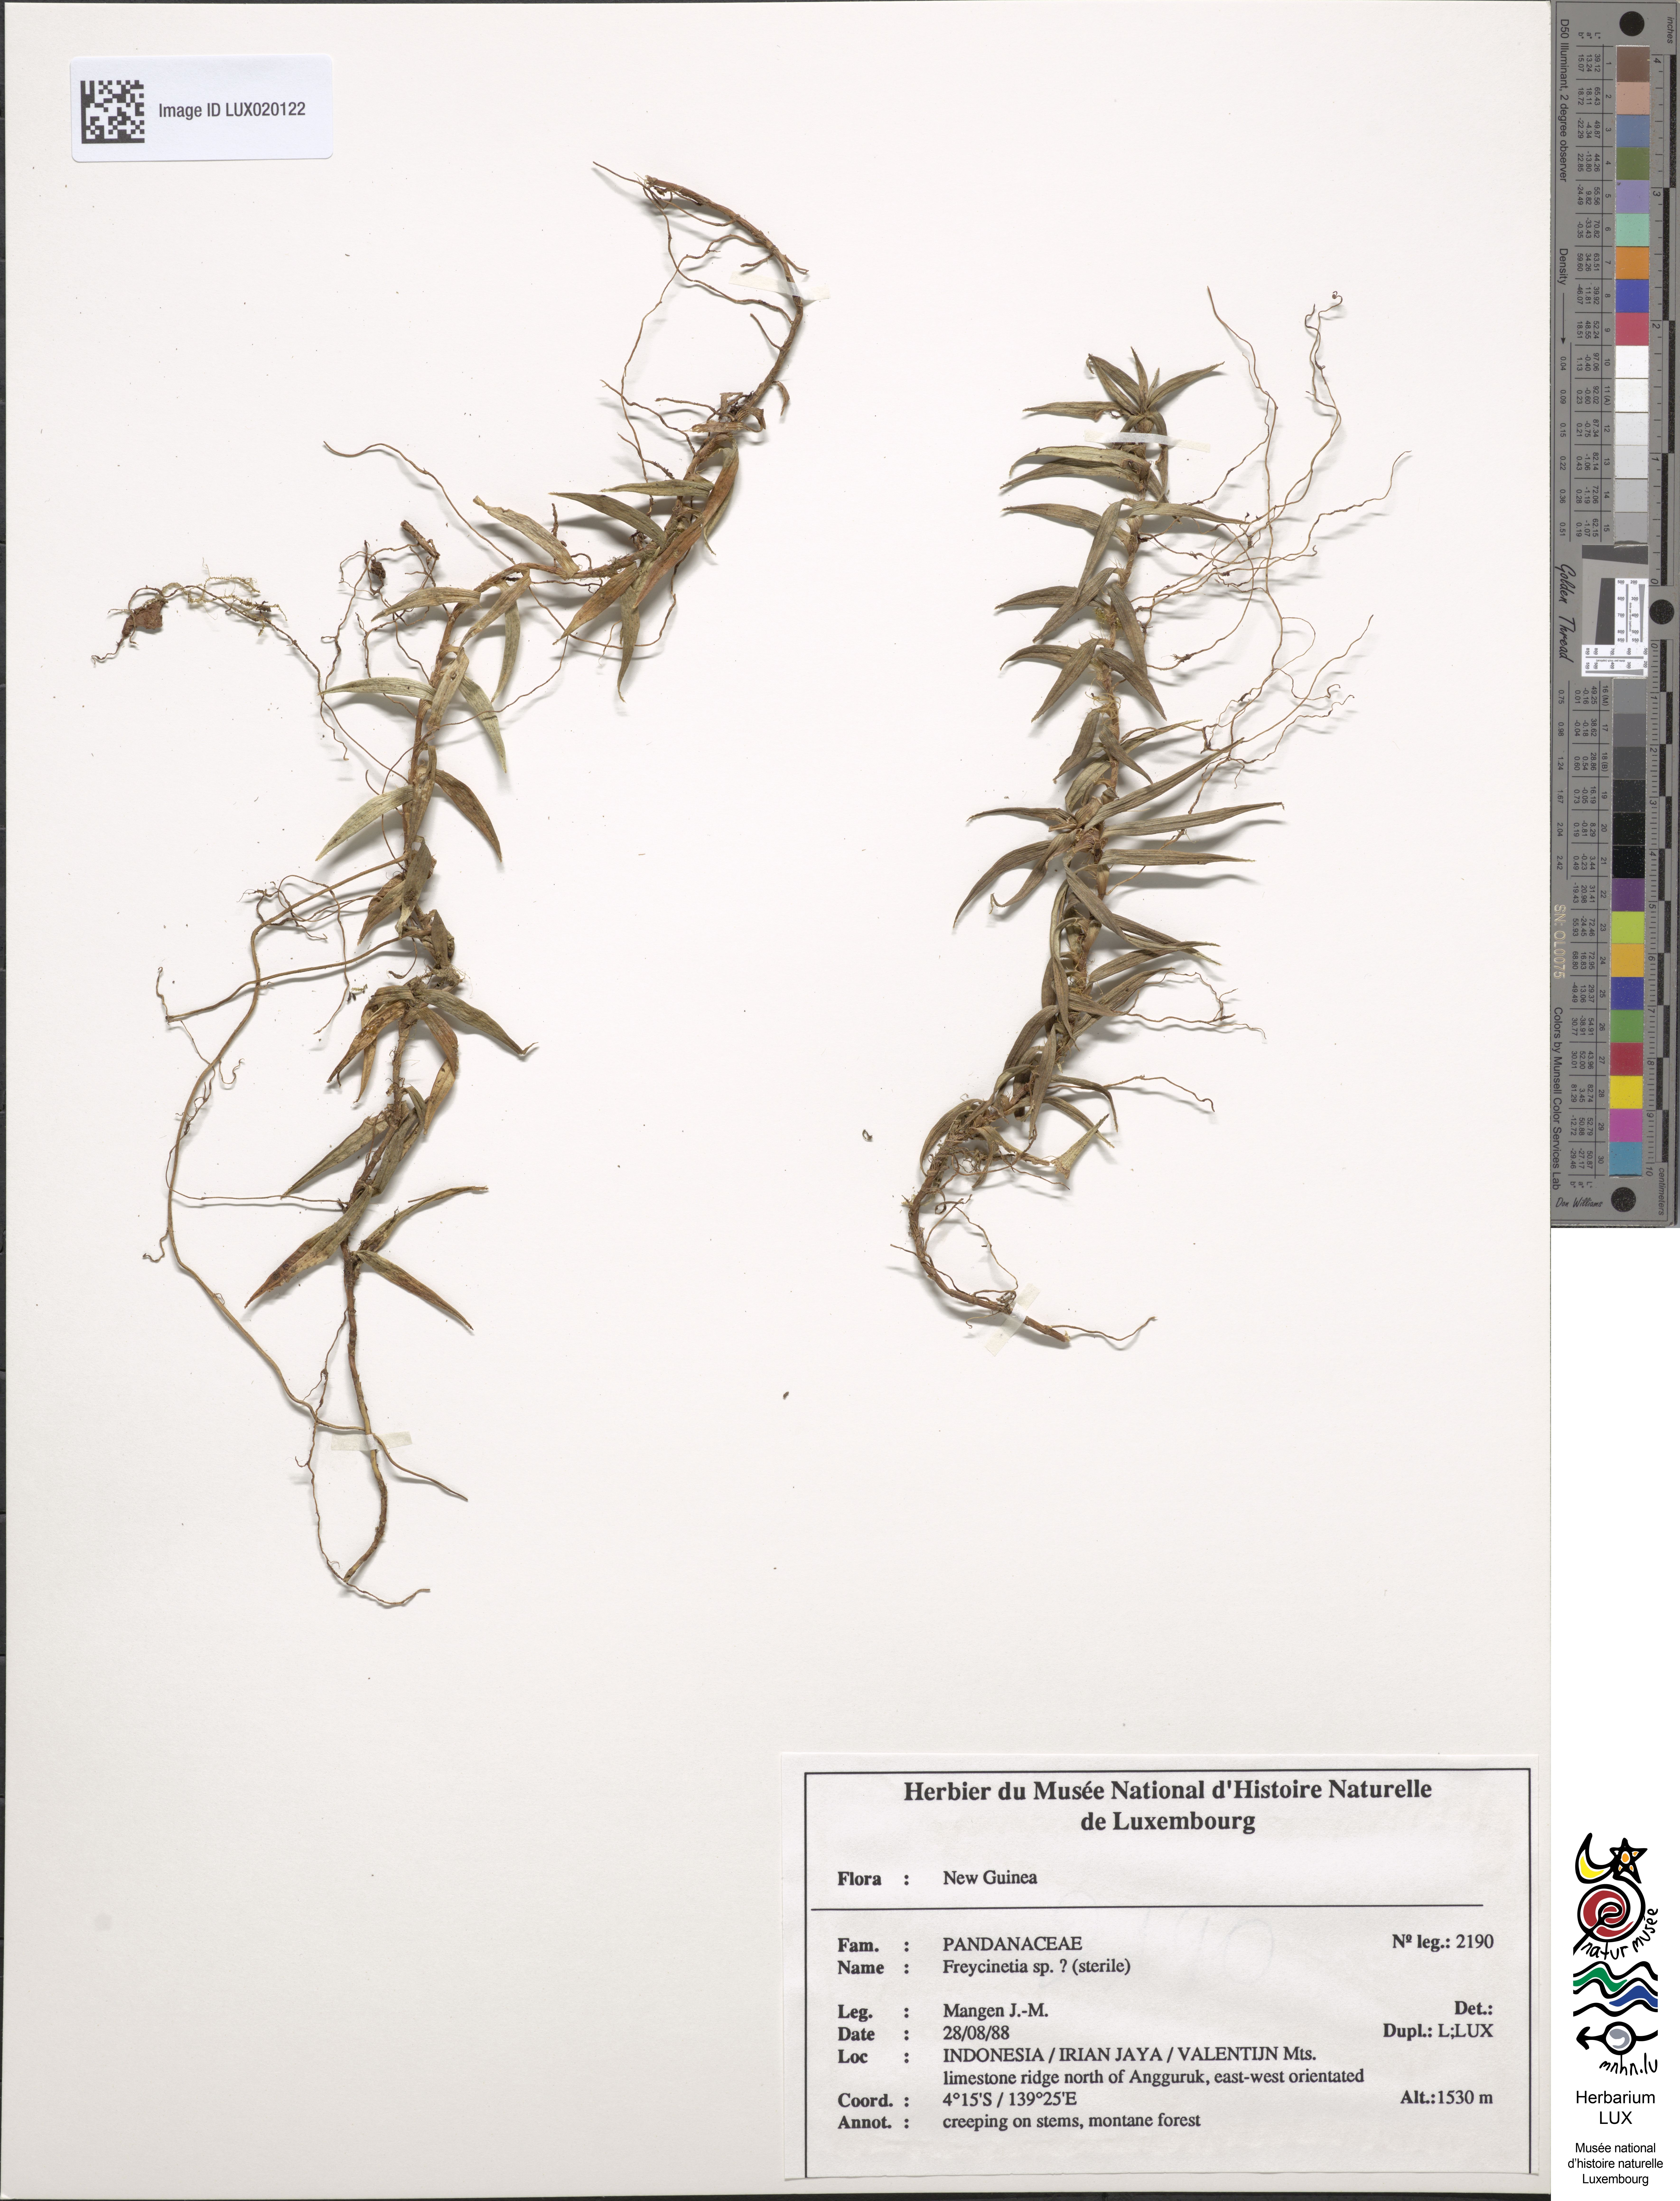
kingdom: Plantae
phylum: Tracheophyta
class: Liliopsida
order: Pandanales
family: Pandanaceae
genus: Freycinetia
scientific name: Freycinetia
